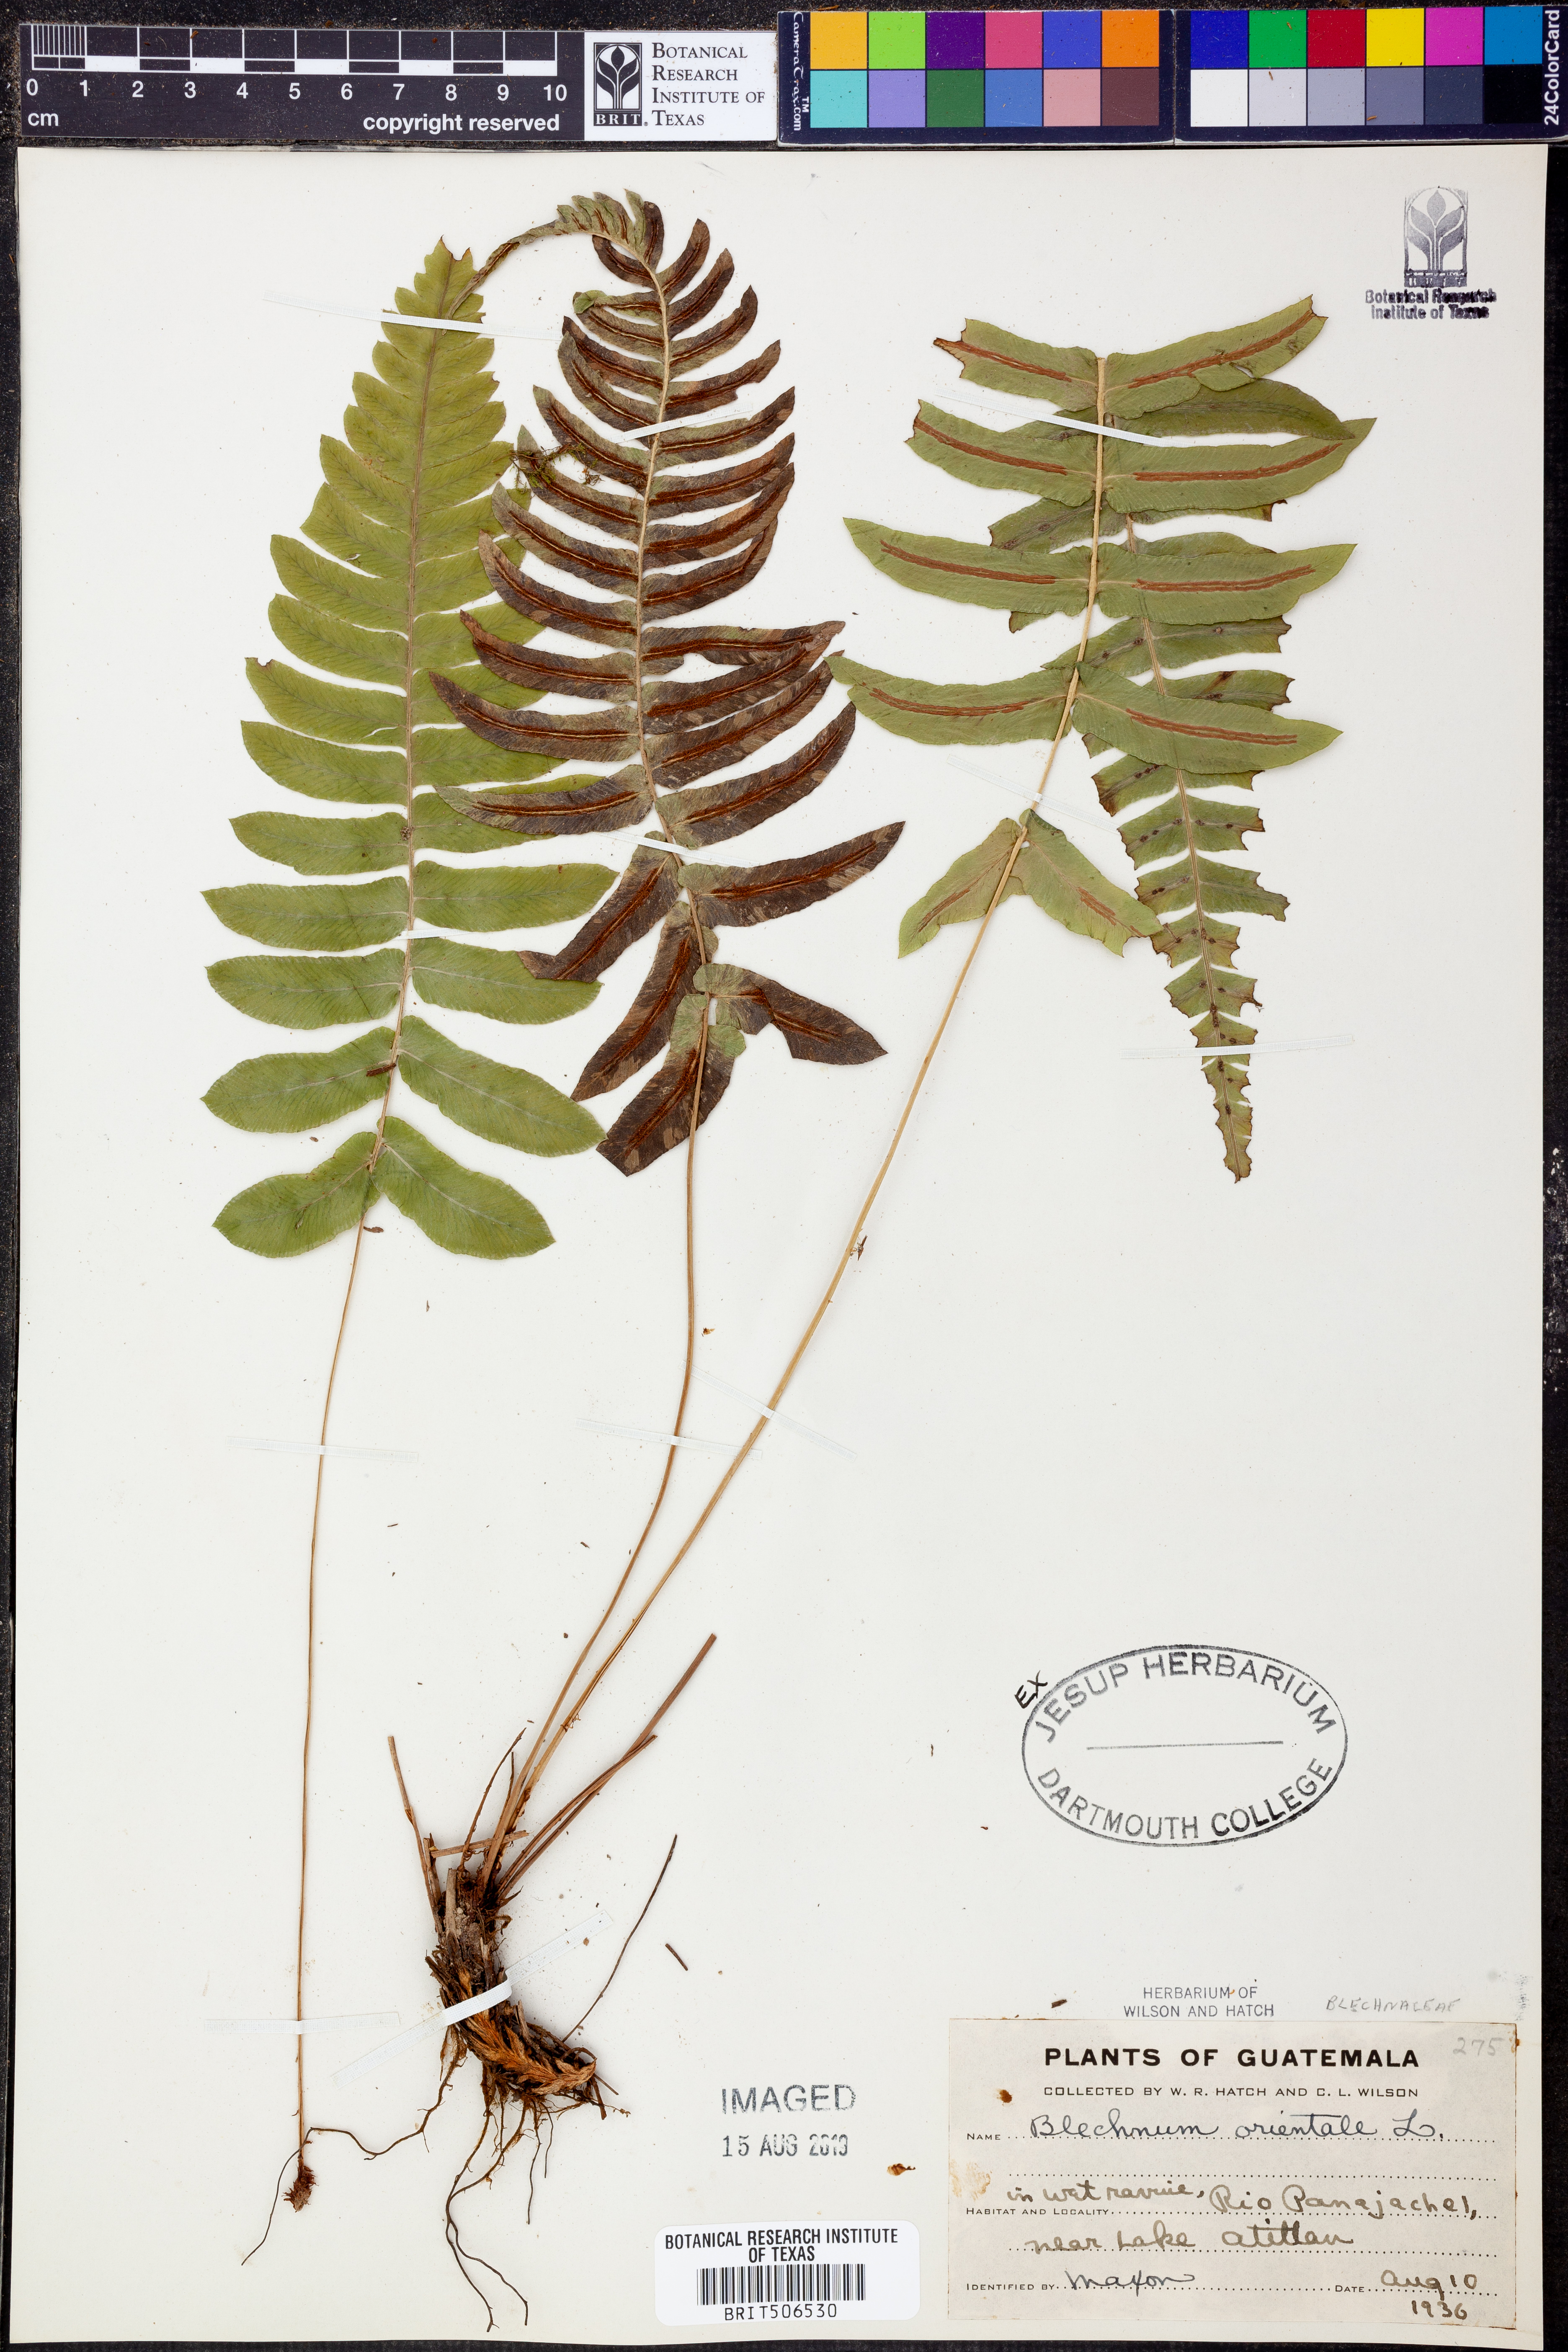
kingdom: Plantae
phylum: Tracheophyta
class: Polypodiopsida
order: Polypodiales
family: Blechnaceae
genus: Blechnopsis
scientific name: Blechnopsis orientalis
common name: Oriental blechnum
